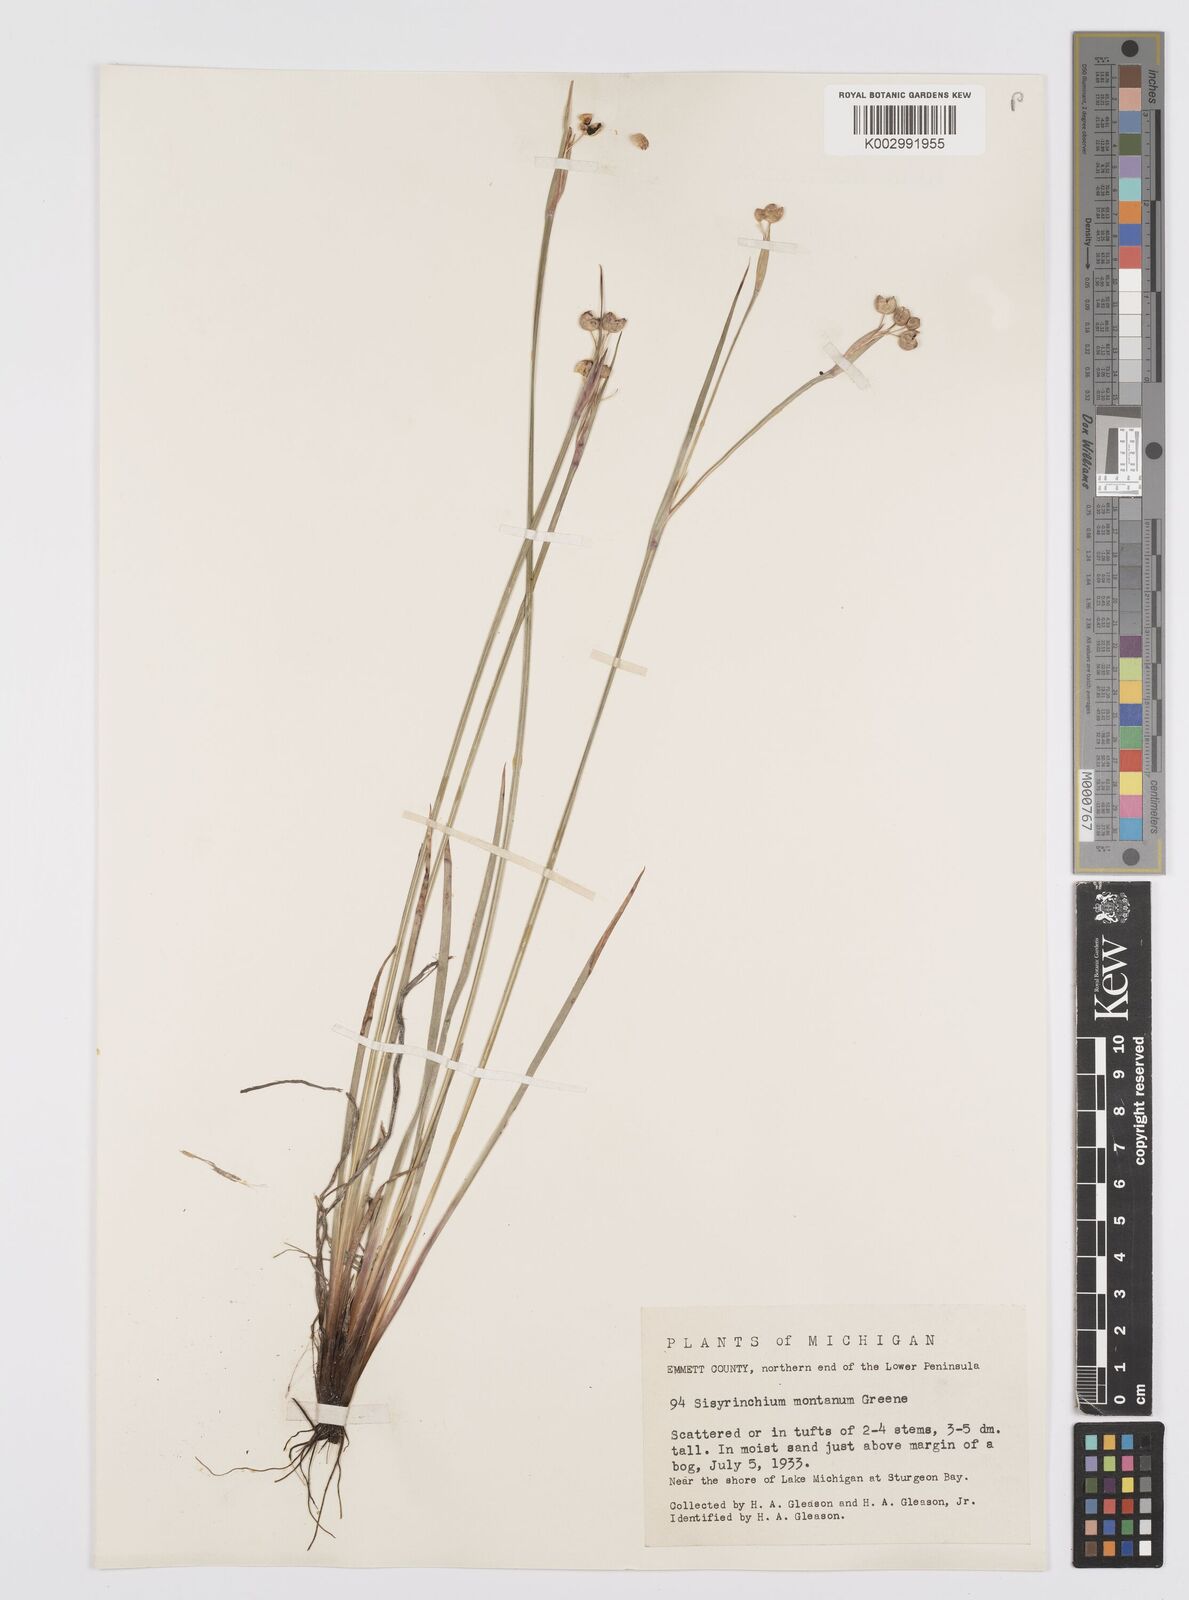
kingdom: Plantae
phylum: Tracheophyta
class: Liliopsida
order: Asparagales
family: Iridaceae
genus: Sisyrinchium
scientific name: Sisyrinchium montanum
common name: American blue-eyed-grass
